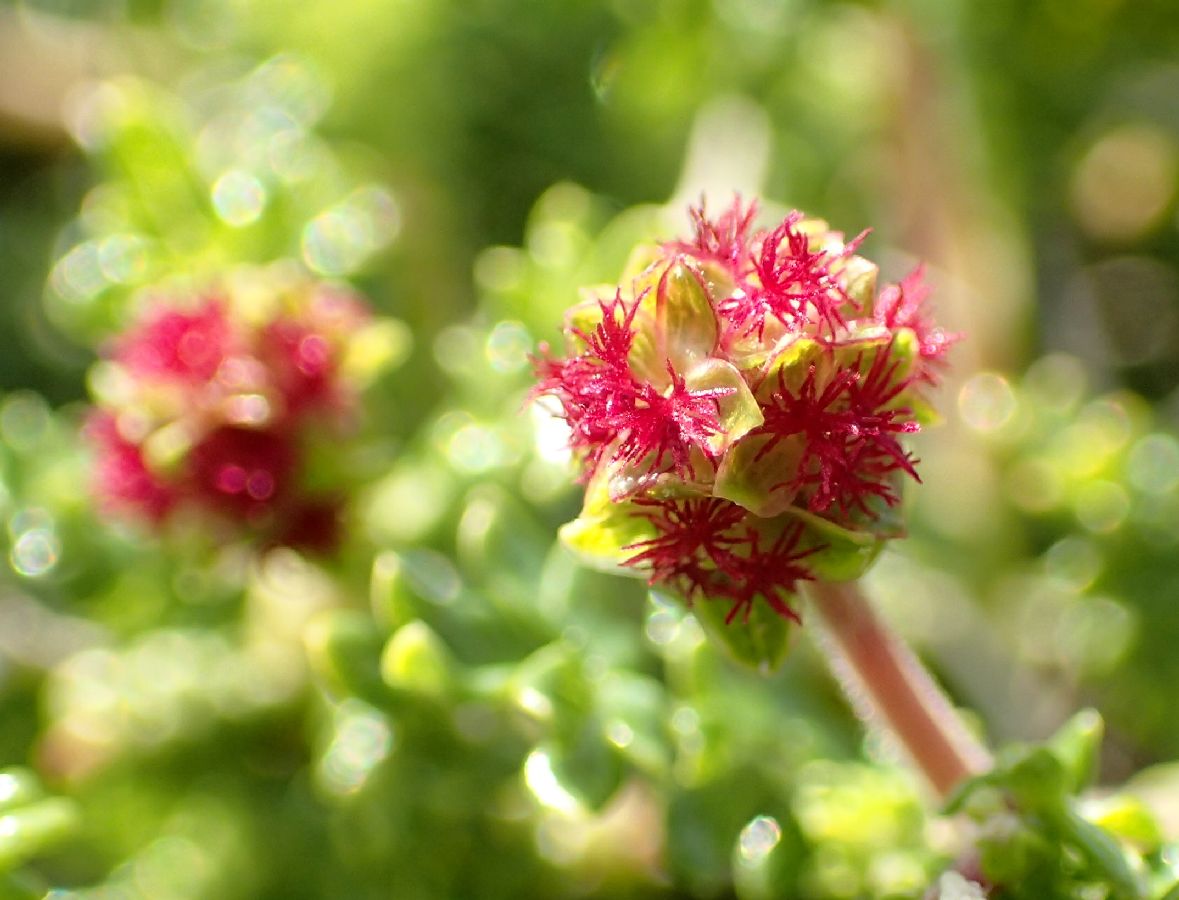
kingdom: Plantae
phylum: Tracheophyta
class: Magnoliopsida
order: Rosales
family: Rosaceae
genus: Poterium
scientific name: Poterium sanguisorba
